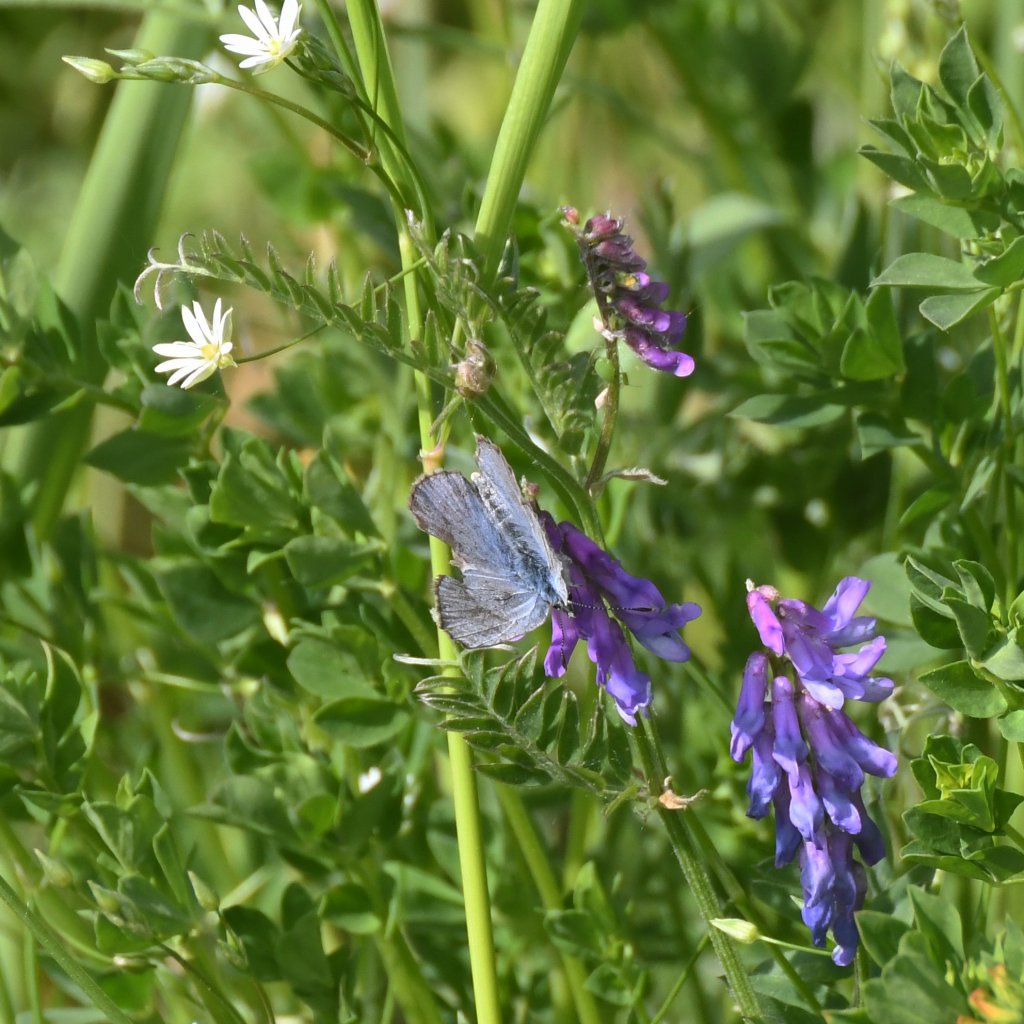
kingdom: Animalia
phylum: Arthropoda
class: Insecta
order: Lepidoptera
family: Lycaenidae
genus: Glaucopsyche
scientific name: Glaucopsyche lygdamus
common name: Silvery Blue
